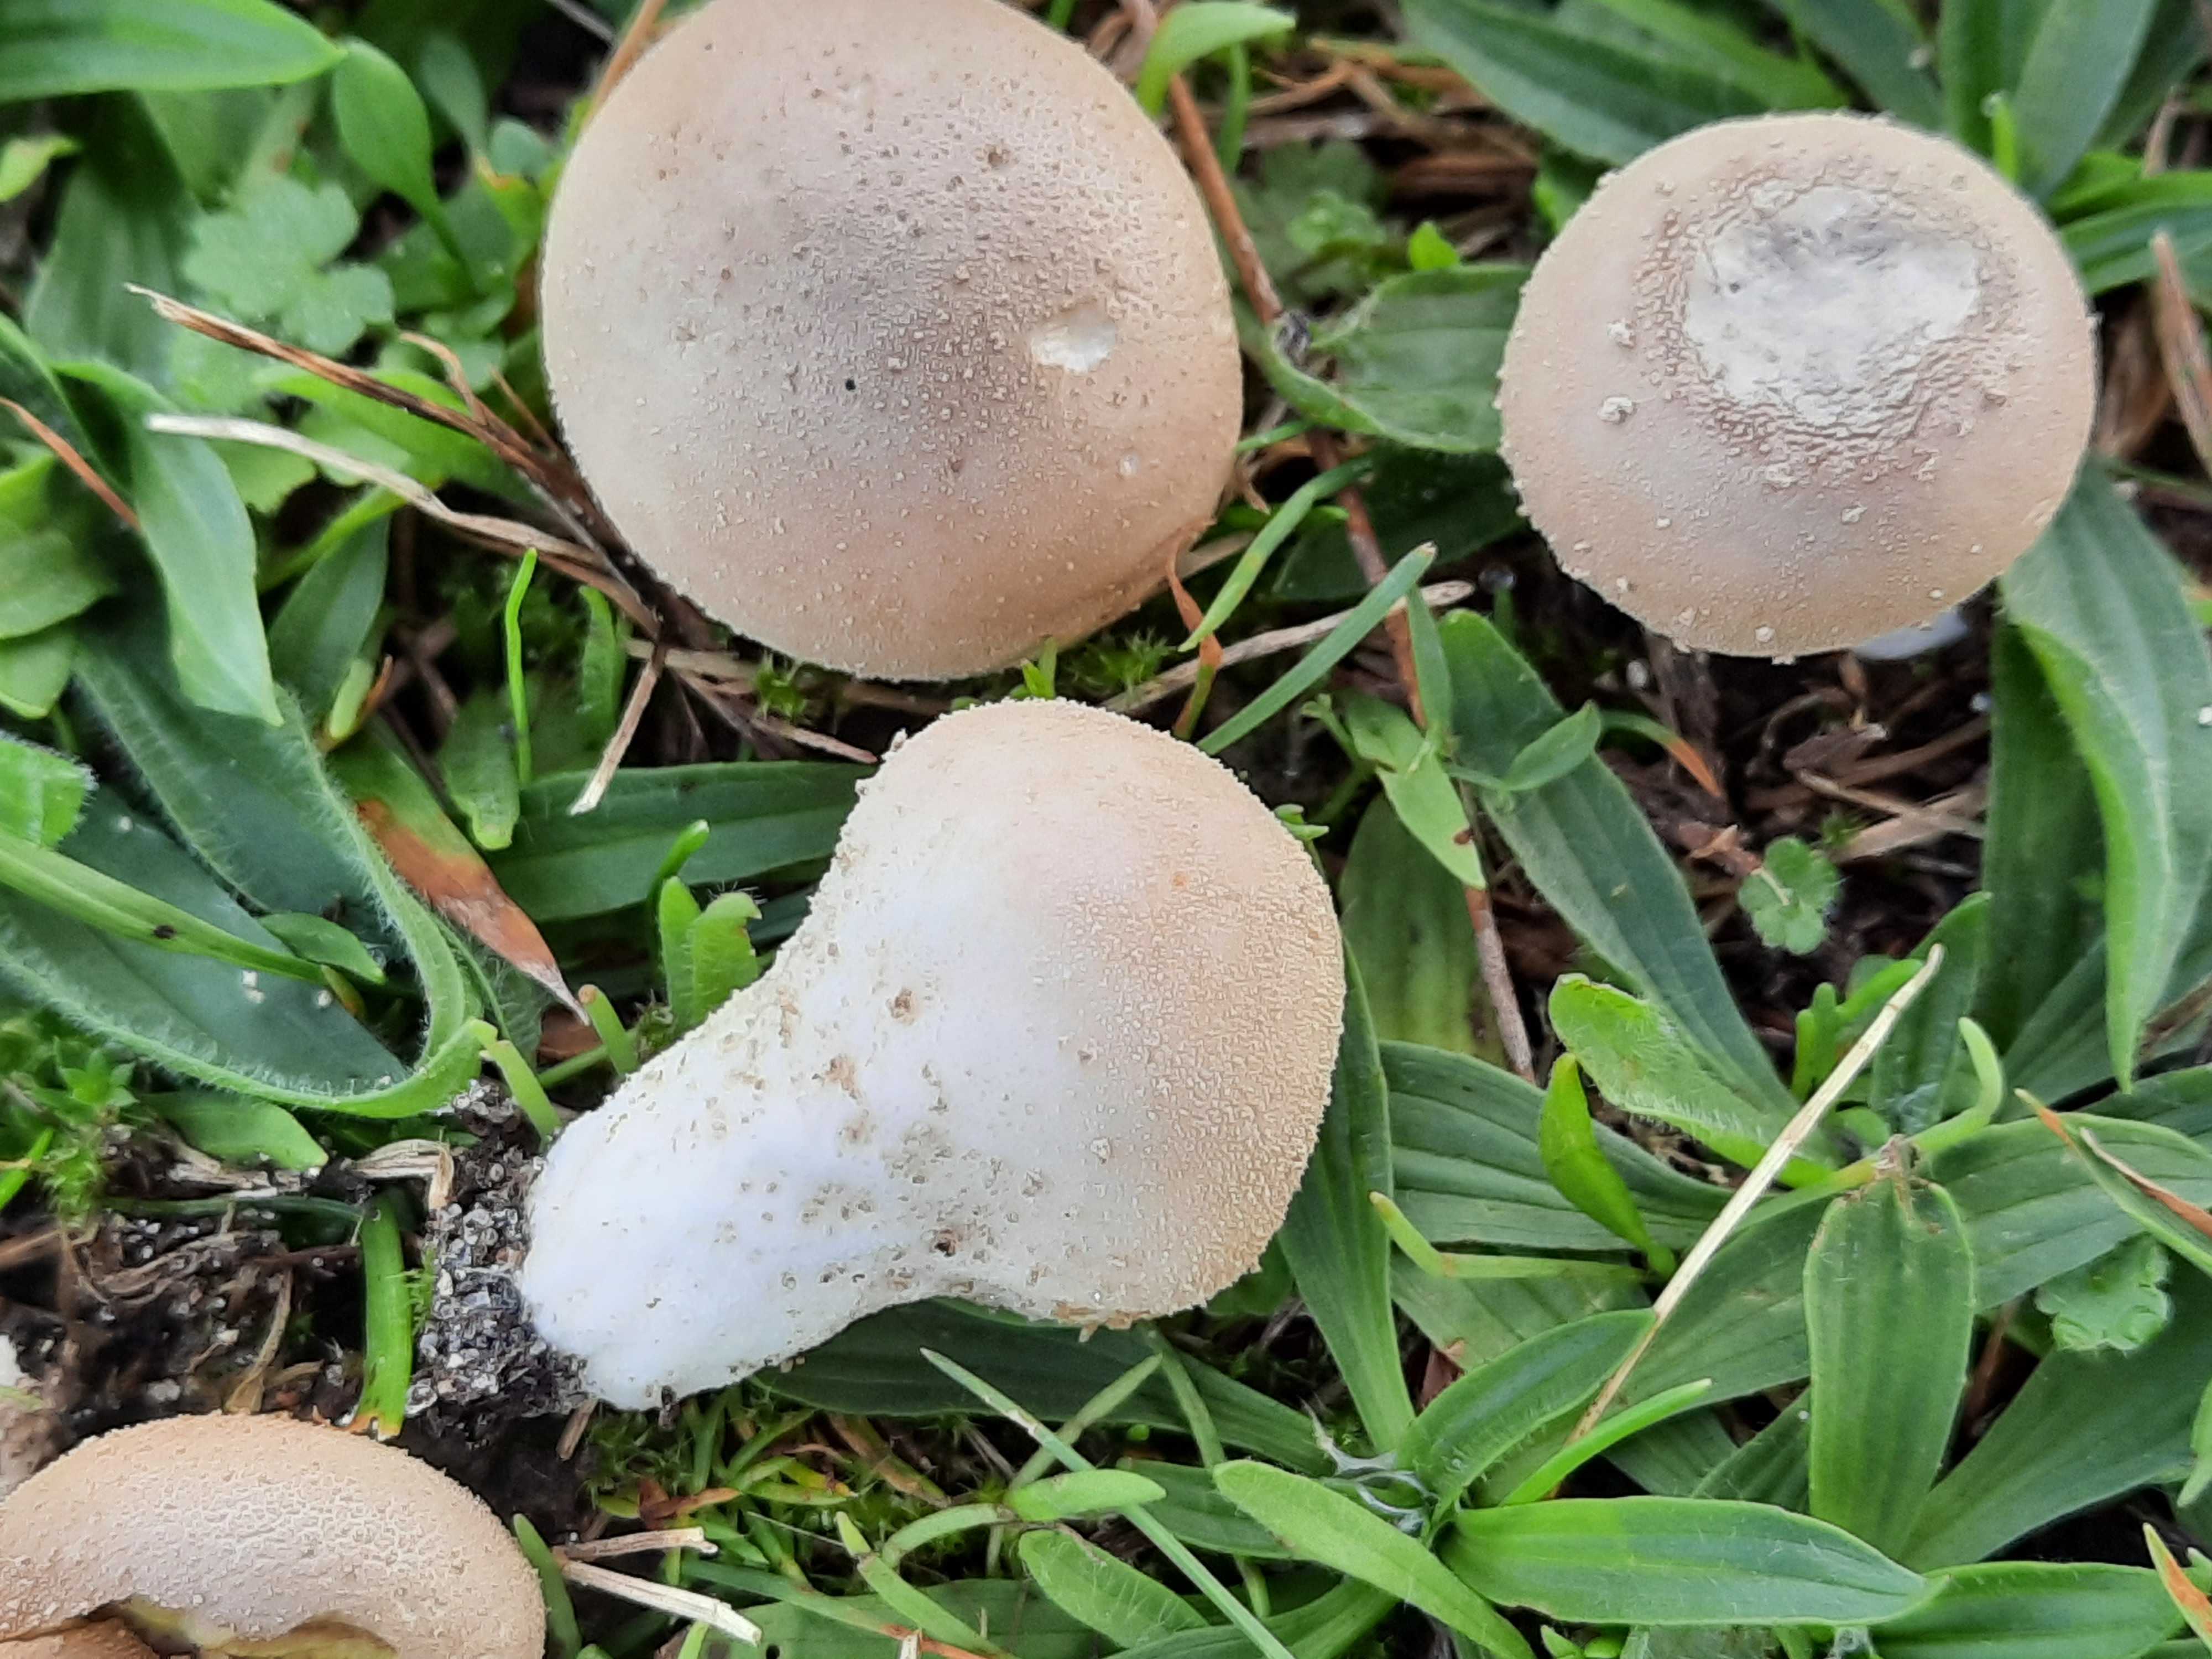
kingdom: Fungi
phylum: Basidiomycota
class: Agaricomycetes
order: Agaricales
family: Lycoperdaceae
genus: Lycoperdon
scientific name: Lycoperdon lividum
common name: mark-støvbold
